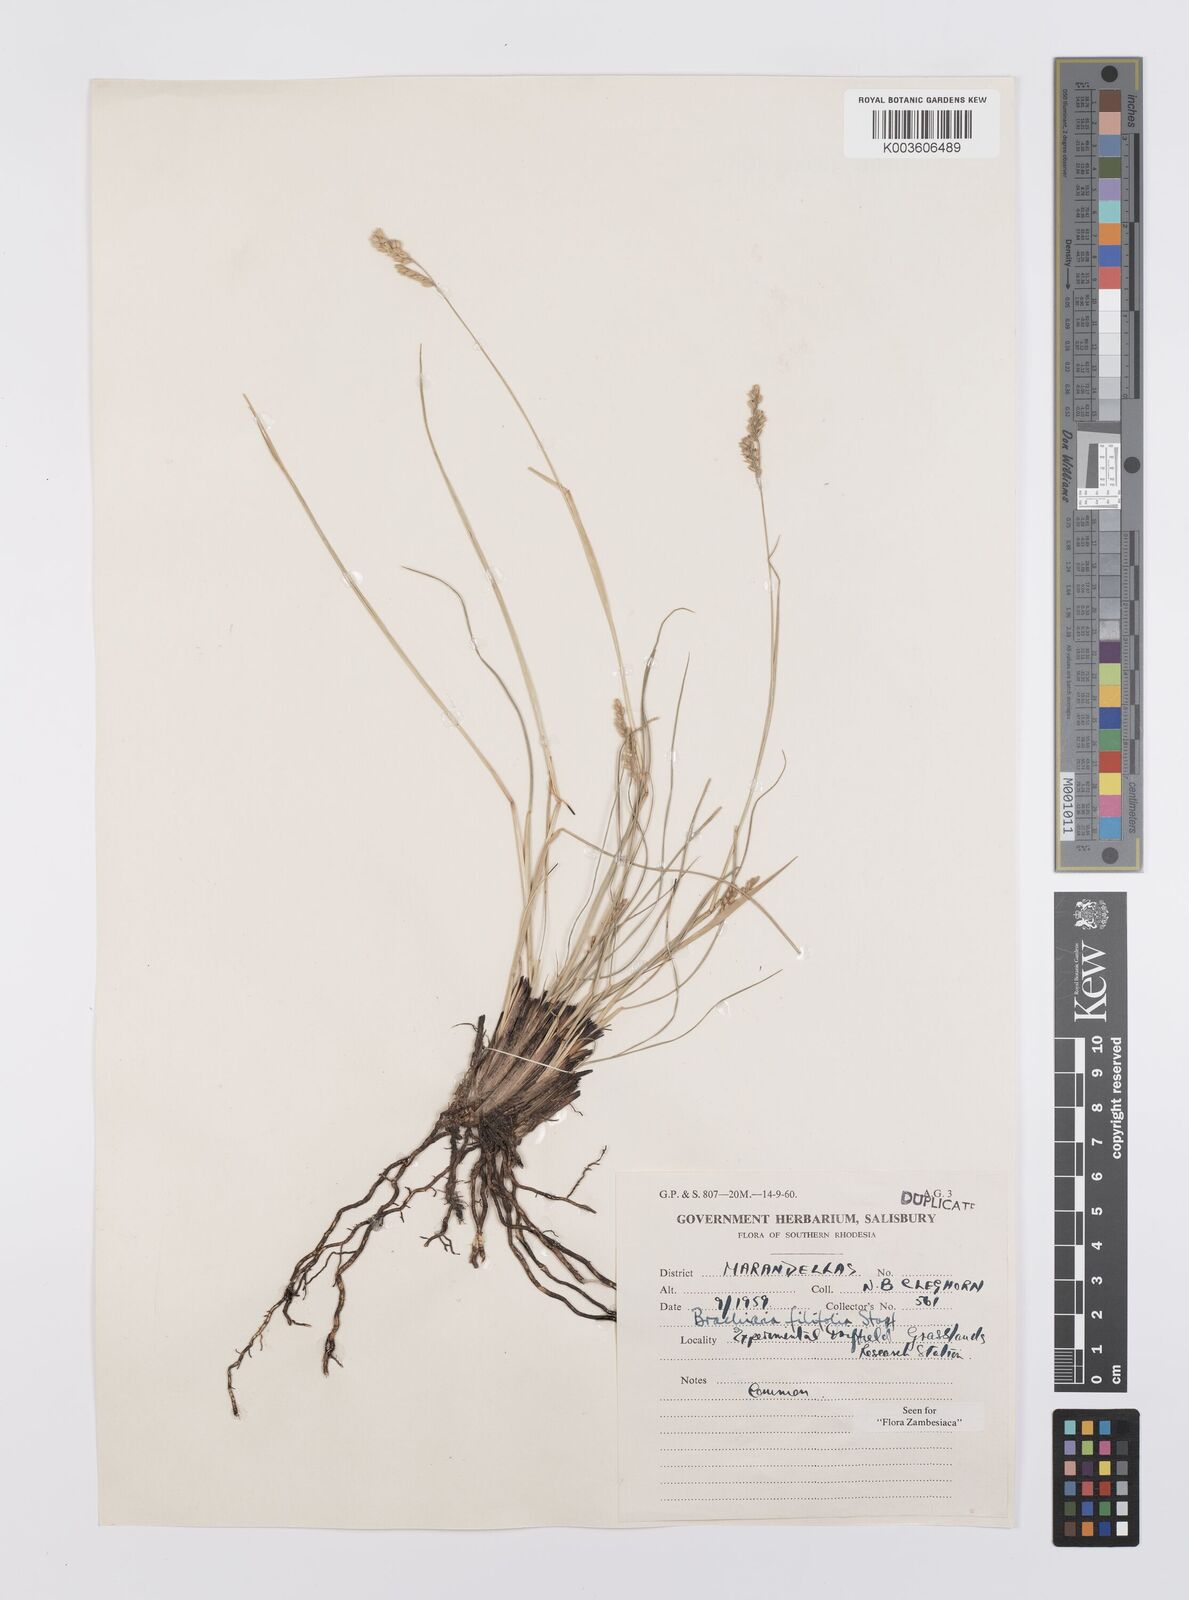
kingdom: Plantae
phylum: Tracheophyta
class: Liliopsida
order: Poales
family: Poaceae
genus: Urochloa
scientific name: Urochloa subulifolia
